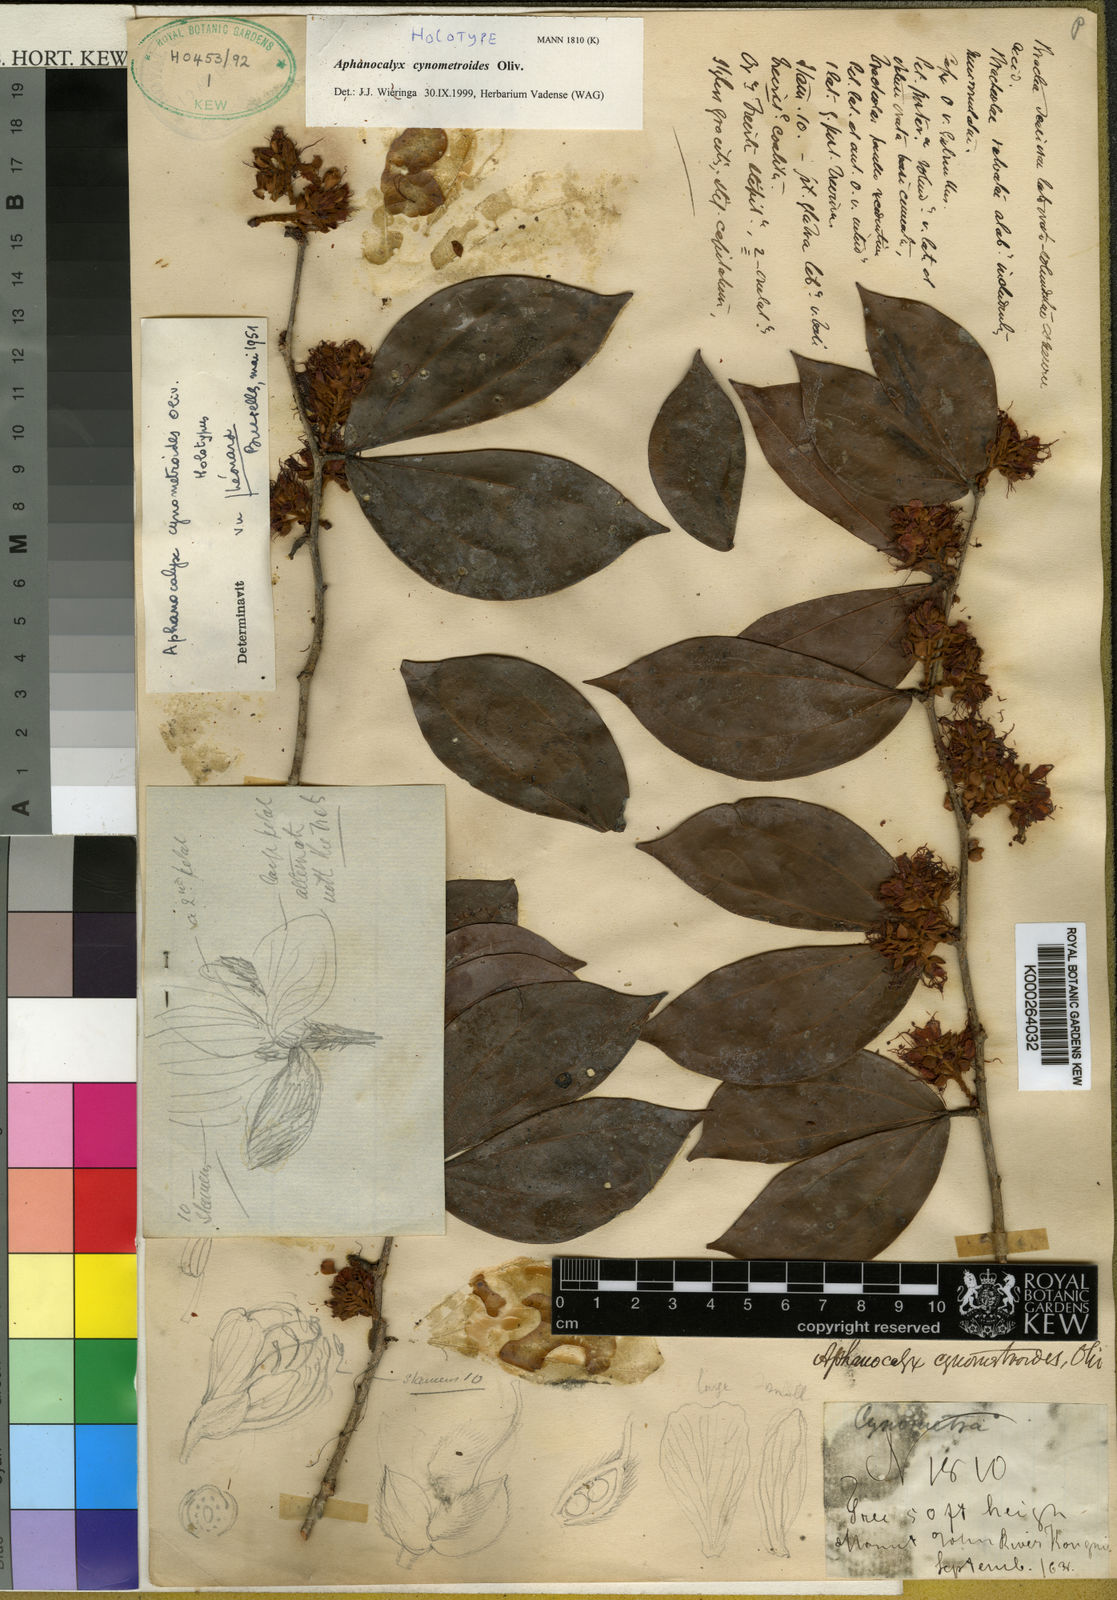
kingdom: Plantae
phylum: Tracheophyta
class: Magnoliopsida
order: Fabales
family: Fabaceae
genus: Aphanocalyx
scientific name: Aphanocalyx cynometroides
